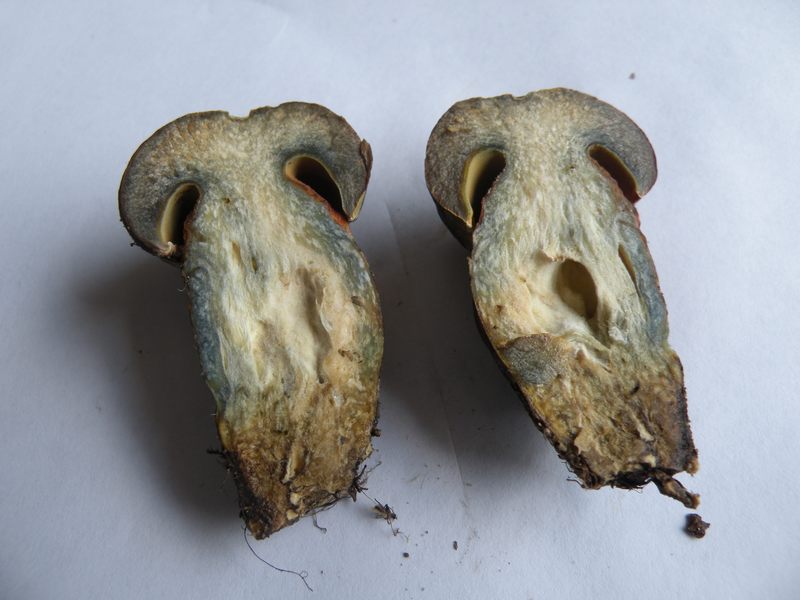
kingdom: Fungi
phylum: Basidiomycota
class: Agaricomycetes
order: Boletales
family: Boletaceae
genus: Suillellus
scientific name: Suillellus luridus
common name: netstokket indigorørhat
